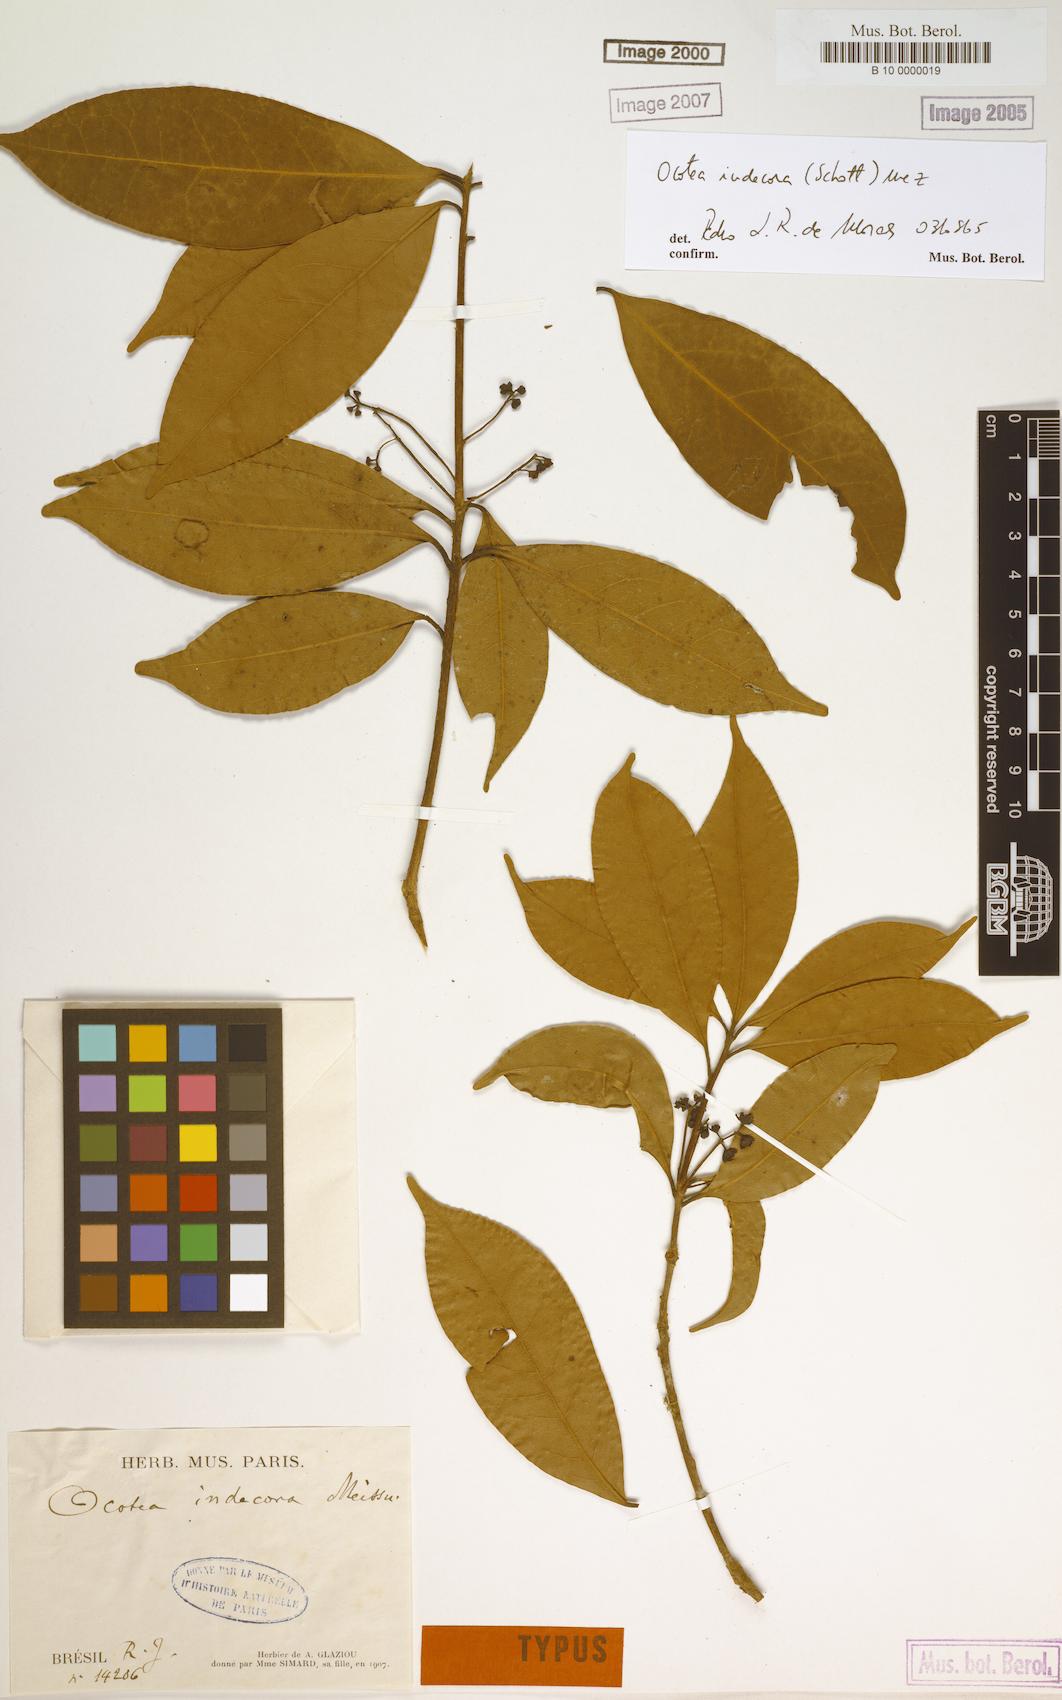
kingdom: Plantae
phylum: Tracheophyta
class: Magnoliopsida
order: Laurales
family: Lauraceae
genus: Mespilodaphne
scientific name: Mespilodaphne indecora
